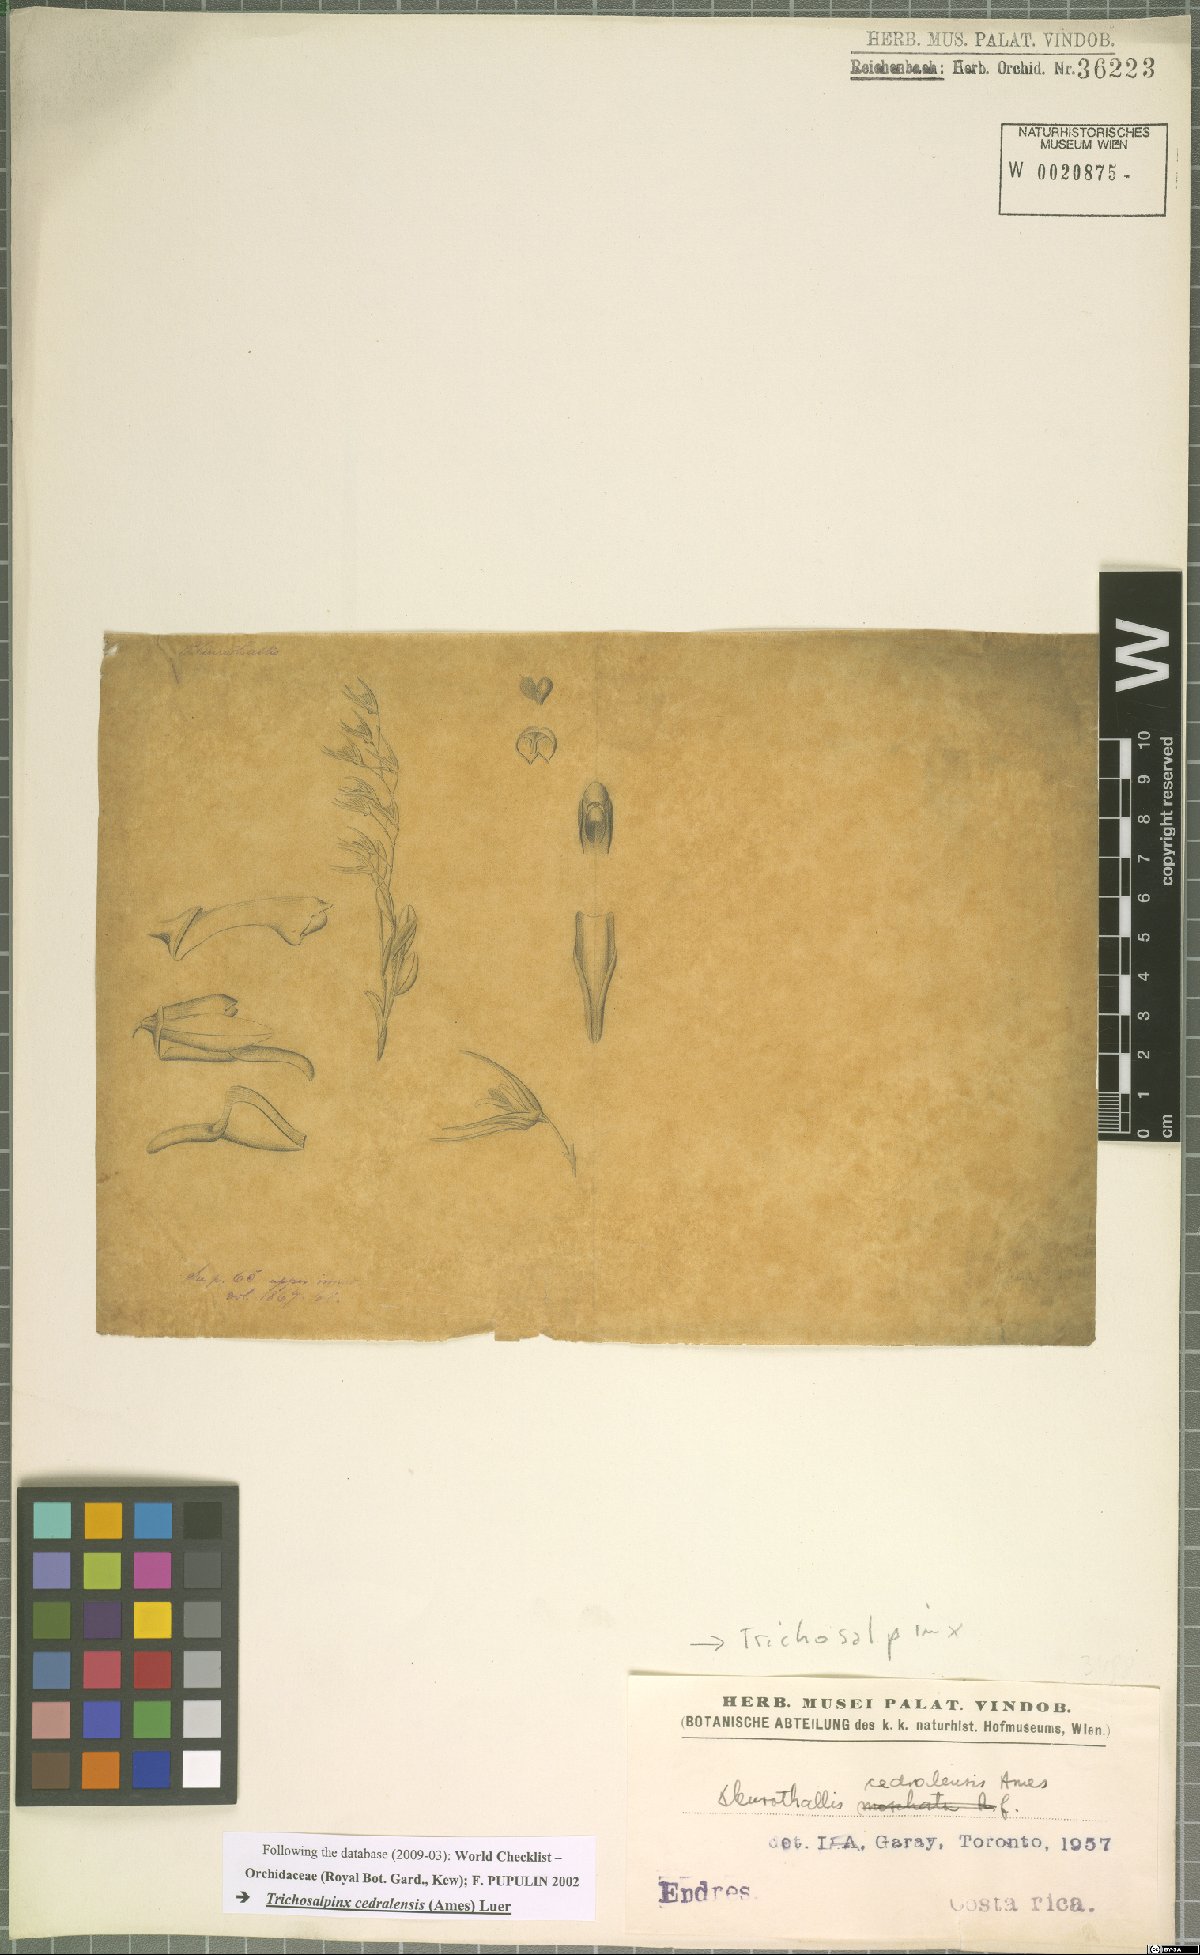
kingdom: Plantae
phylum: Tracheophyta
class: Liliopsida
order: Asparagales
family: Orchidaceae
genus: Trichosalpinx
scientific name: Trichosalpinx cedralensis
